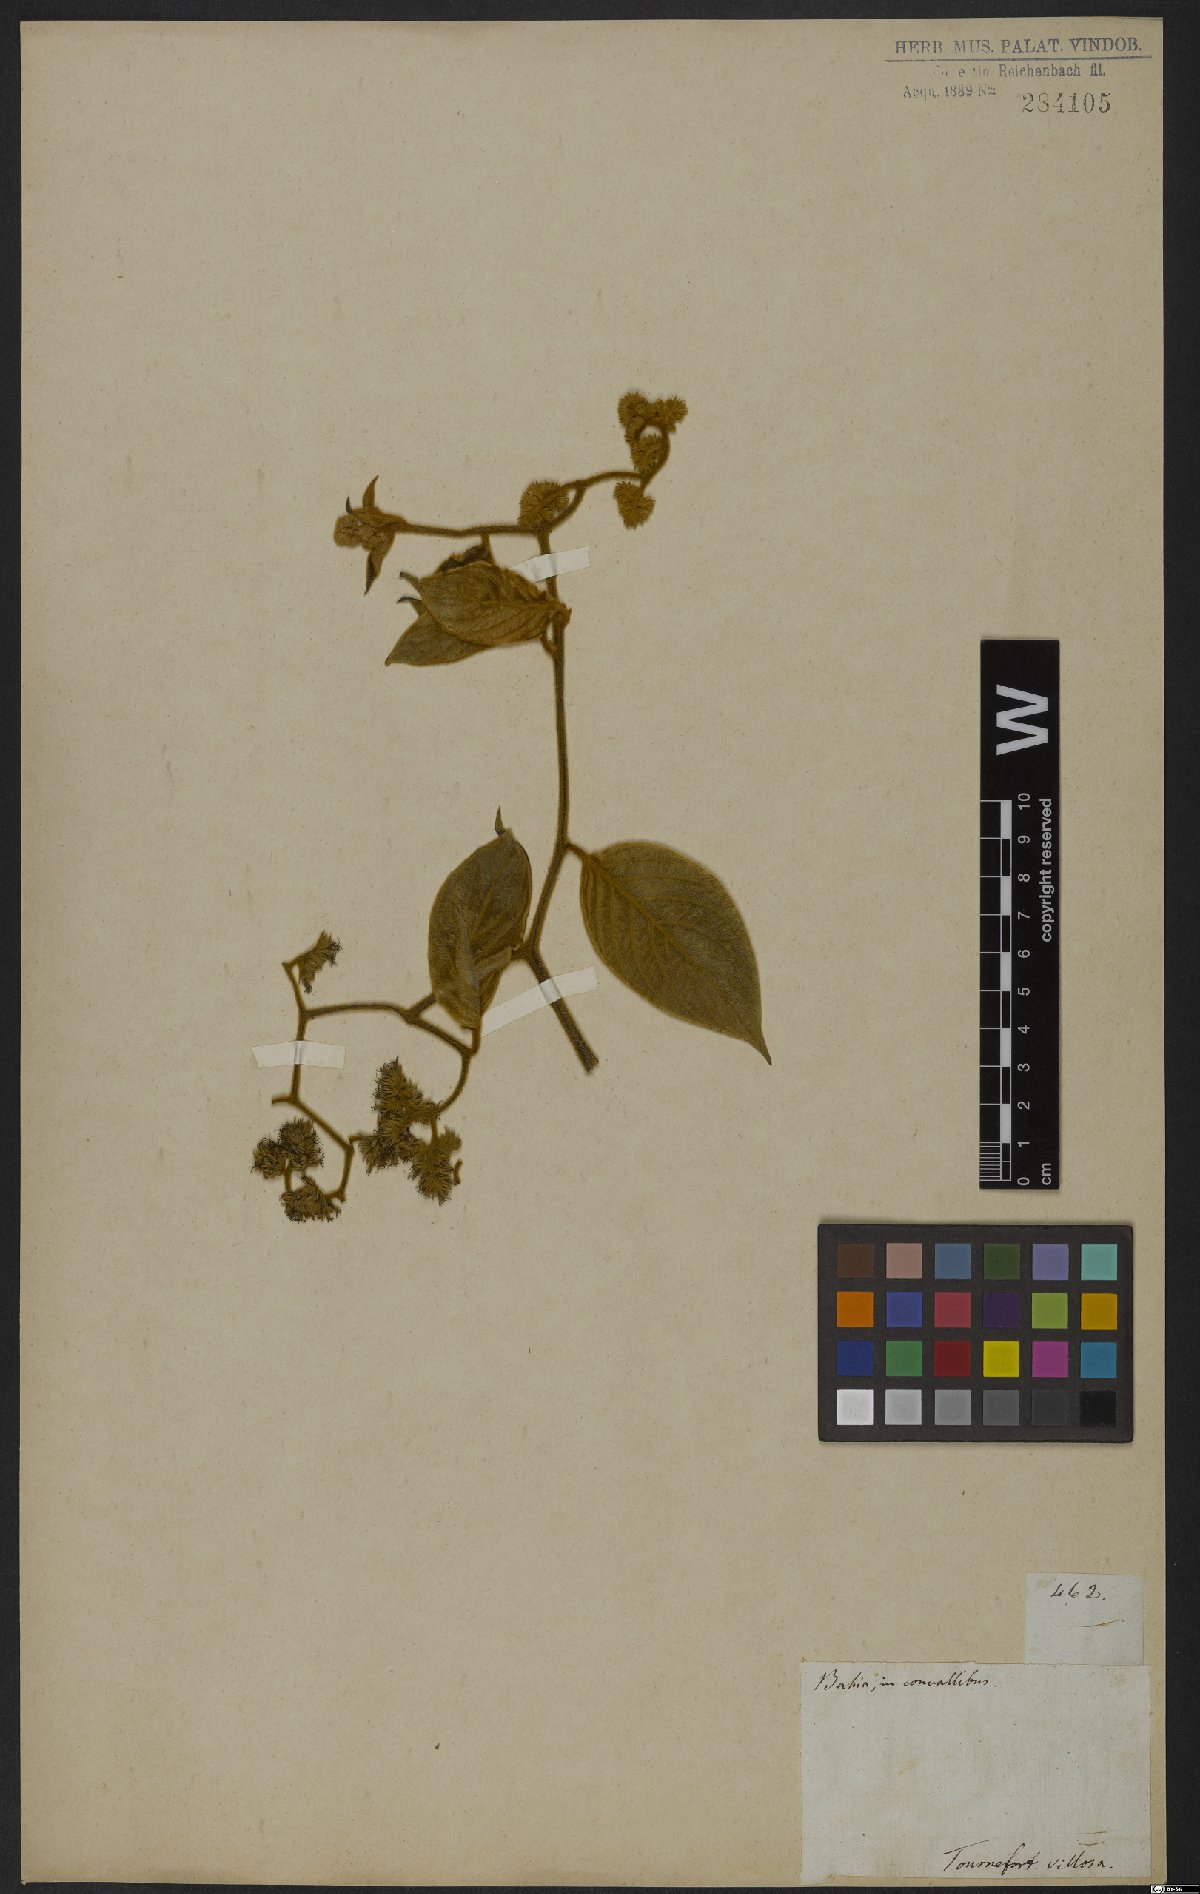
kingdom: Plantae
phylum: Tracheophyta
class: Magnoliopsida
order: Boraginales
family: Heliotropiaceae
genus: Tournefortia
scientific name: Tournefortia villosa
